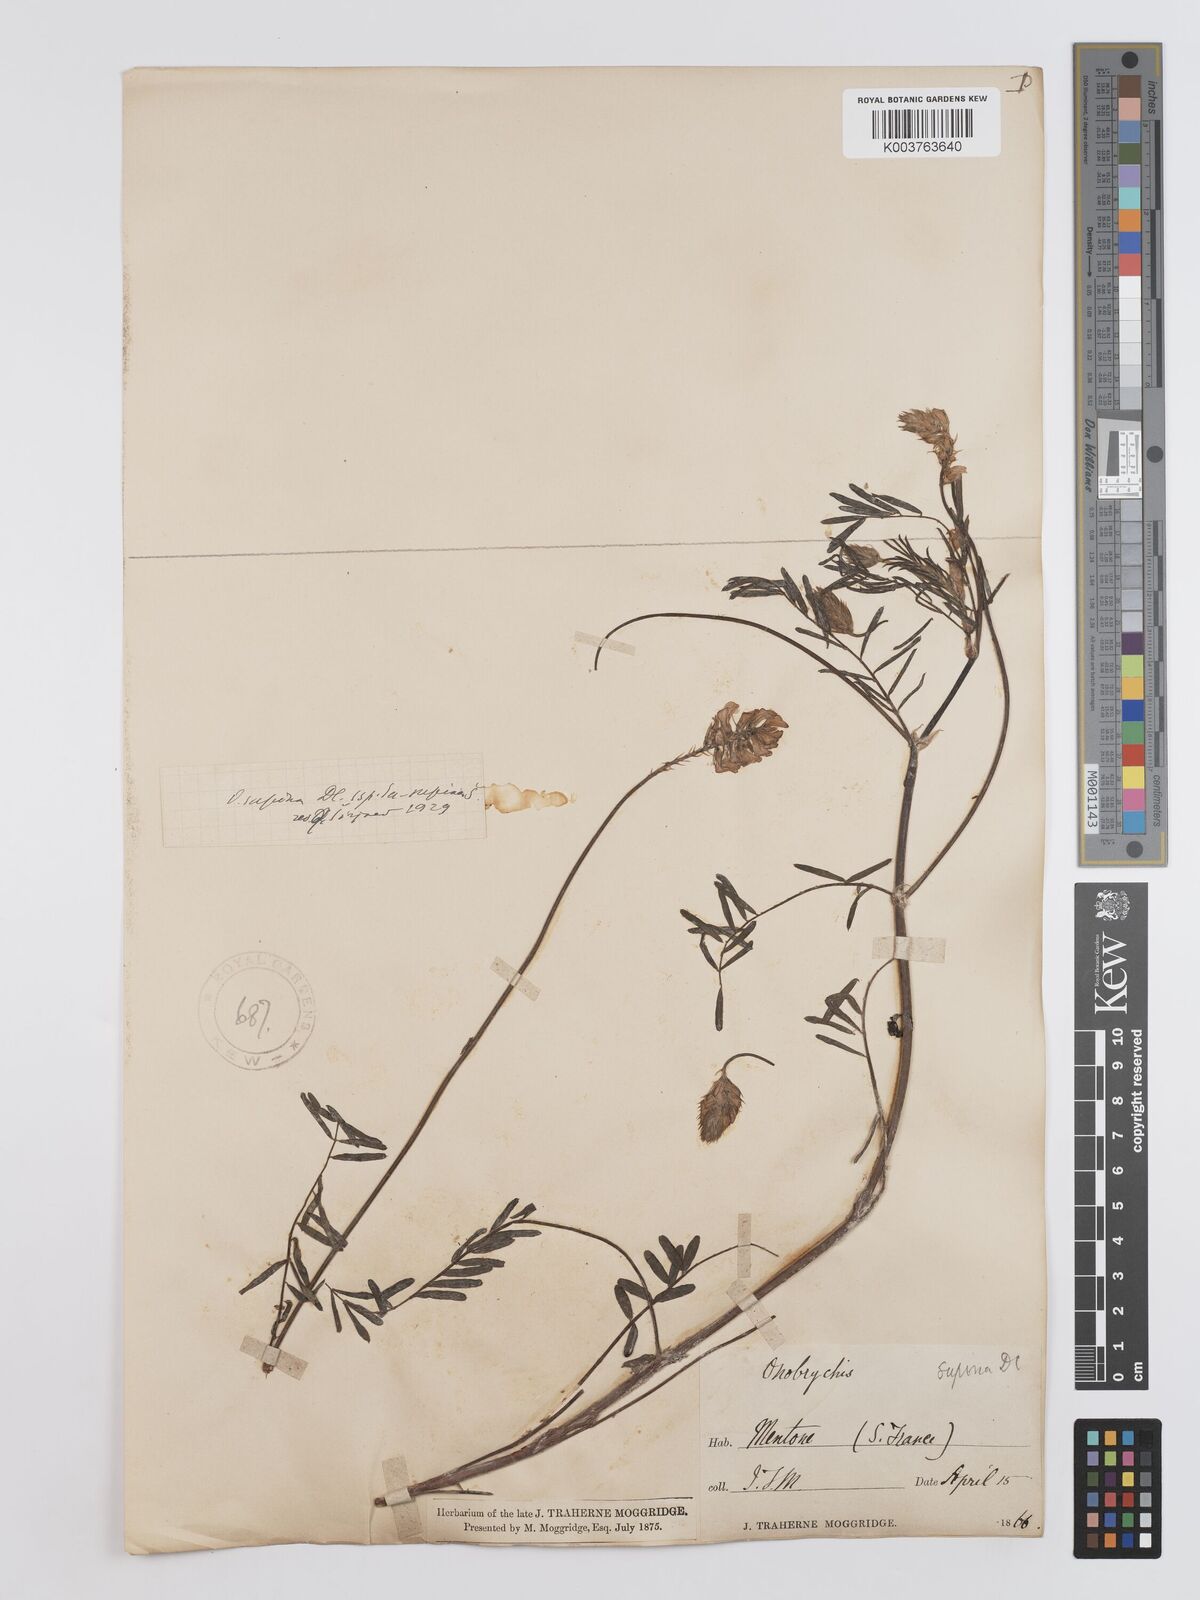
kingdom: Plantae
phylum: Tracheophyta
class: Magnoliopsida
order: Fabales
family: Fabaceae
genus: Onobrychis
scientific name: Onobrychis supina
